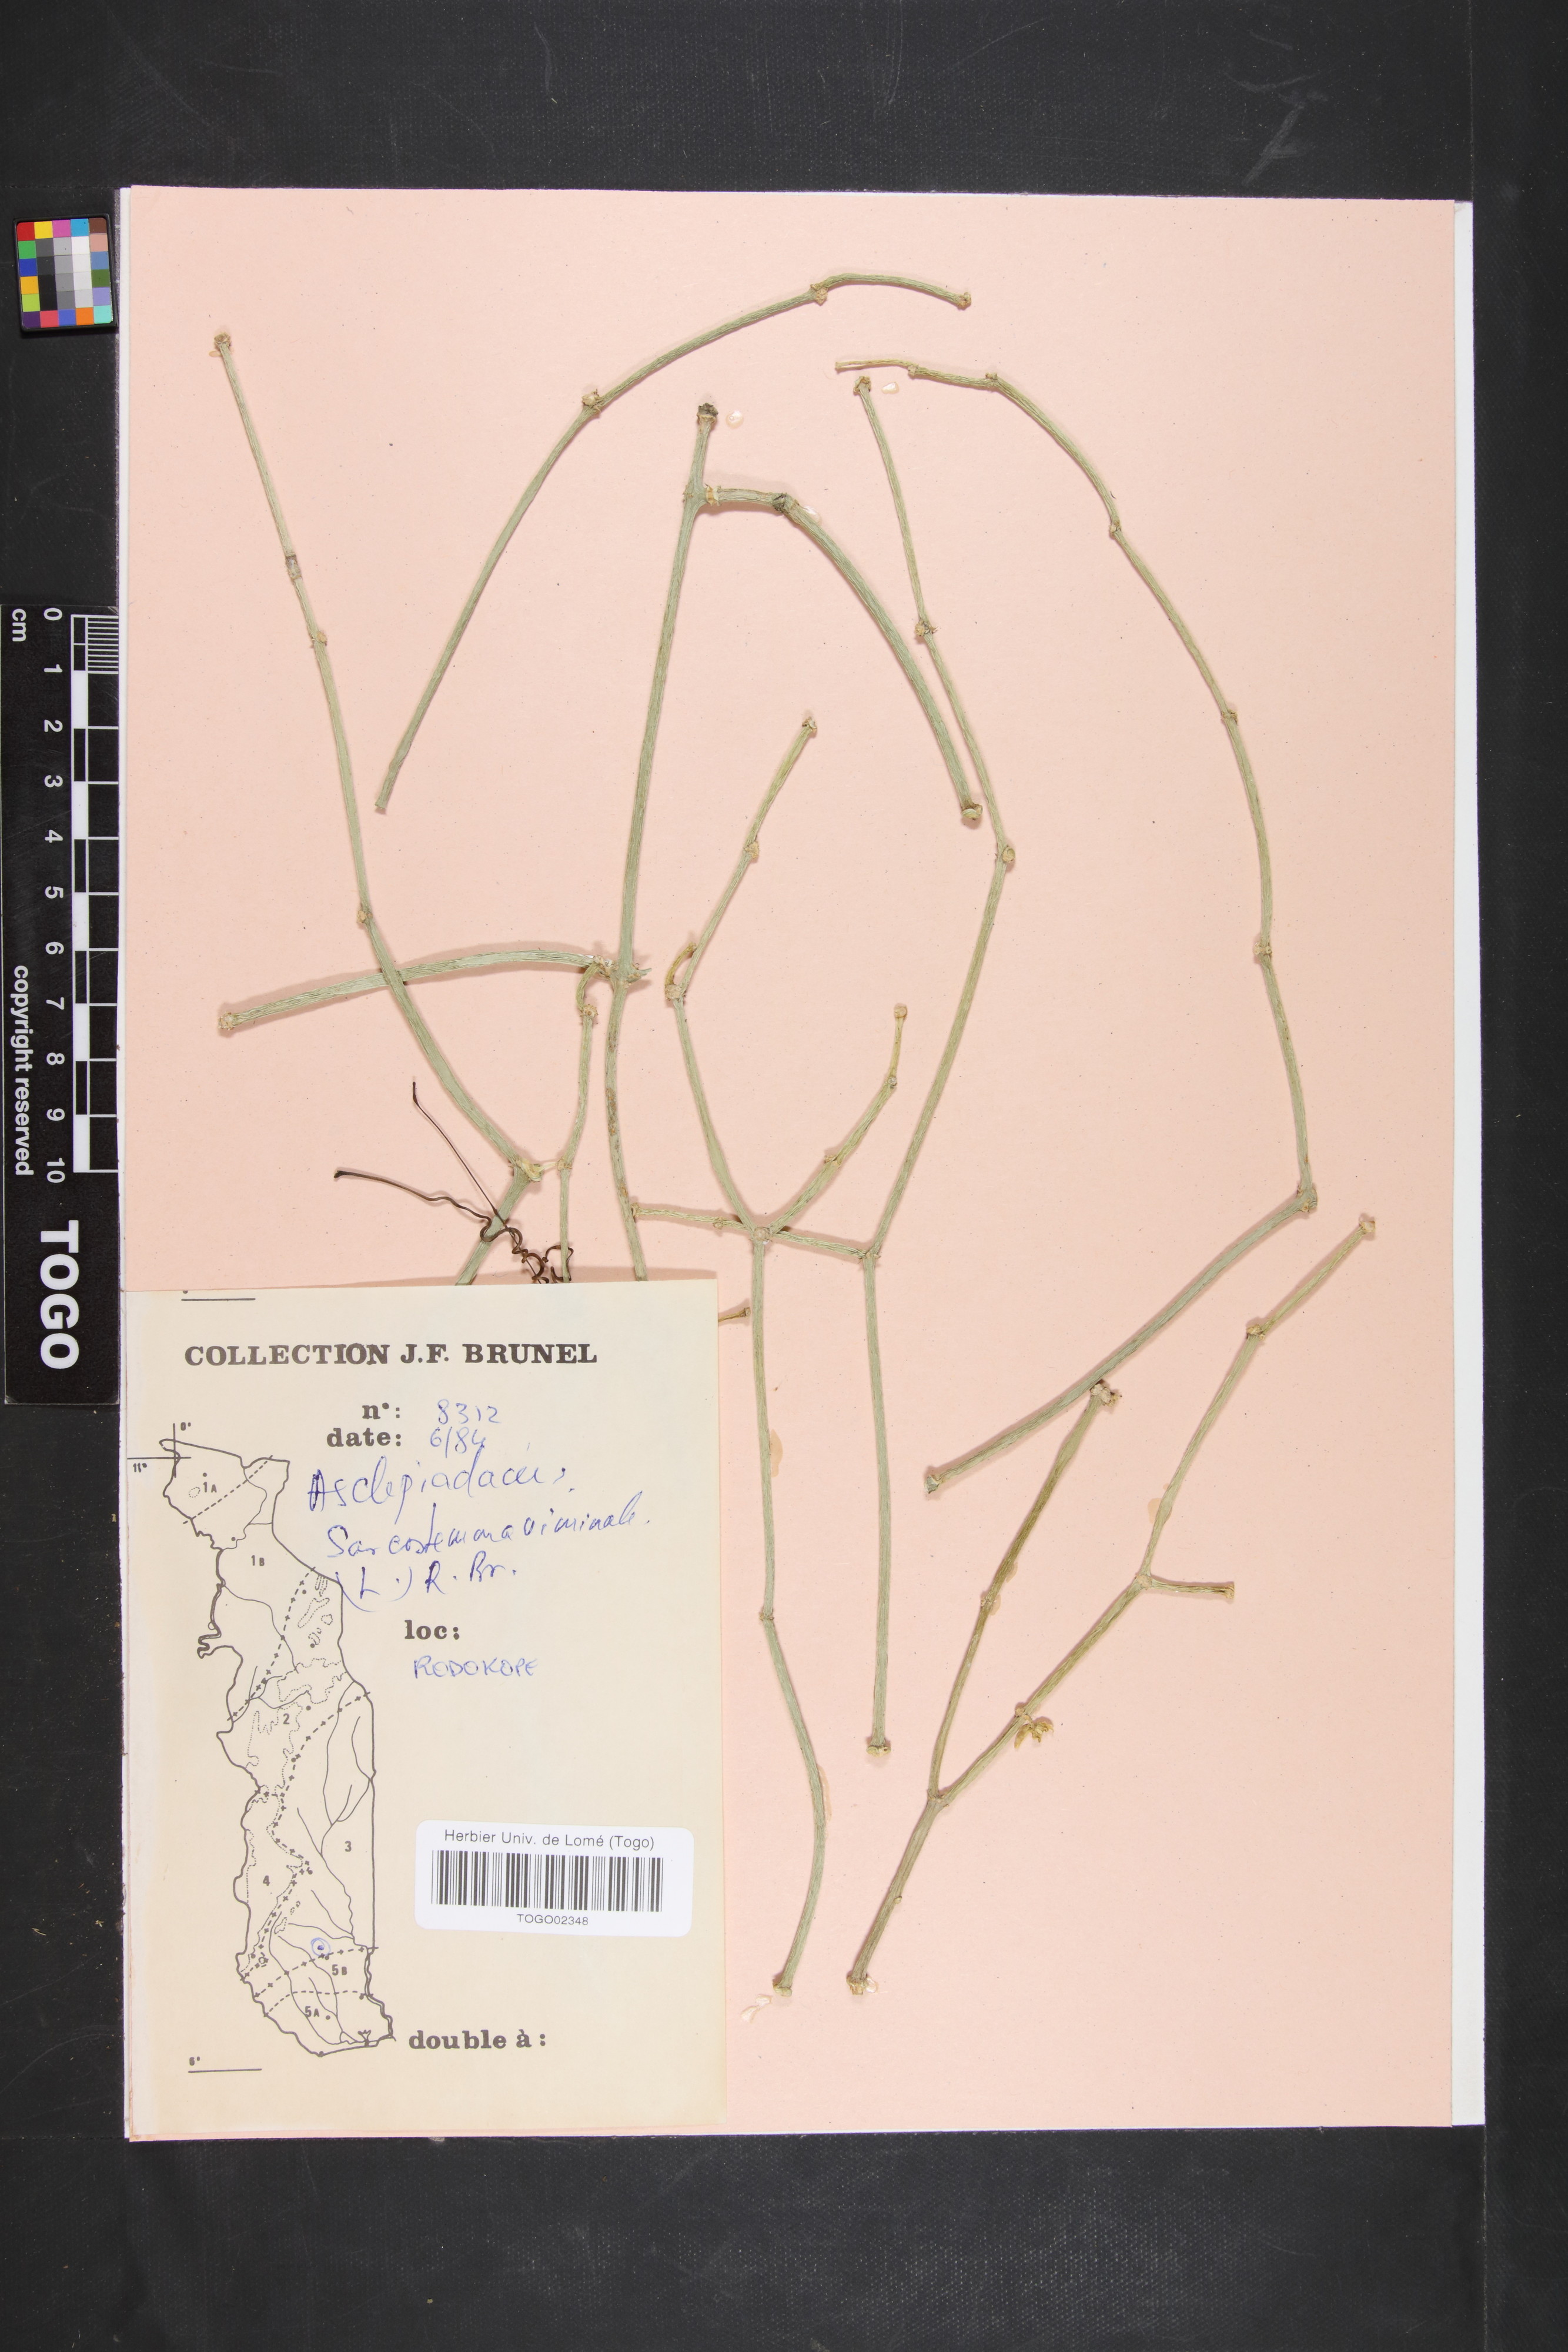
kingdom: Plantae
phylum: Tracheophyta
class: Magnoliopsida
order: Gentianales
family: Apocynaceae
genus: Cynanchum
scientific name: Cynanchum viminale
